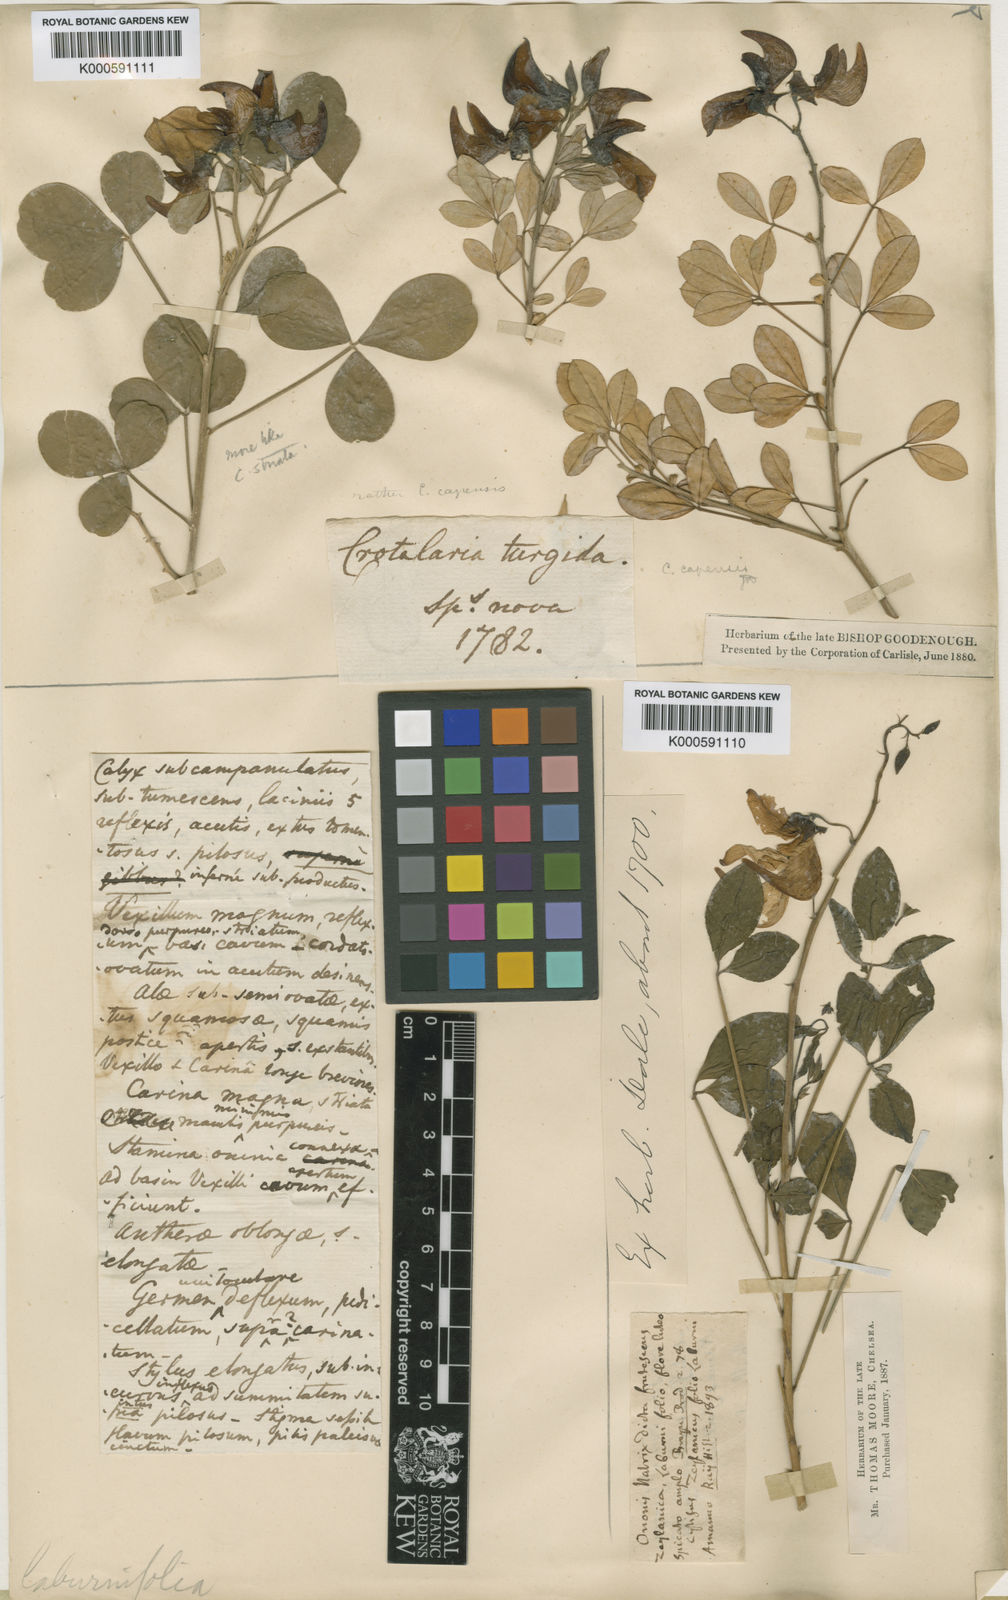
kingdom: Plantae
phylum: Tracheophyta
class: Magnoliopsida
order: Fabales
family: Fabaceae
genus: Crotalaria
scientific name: Crotalaria laburnifolia
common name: Birdflower
